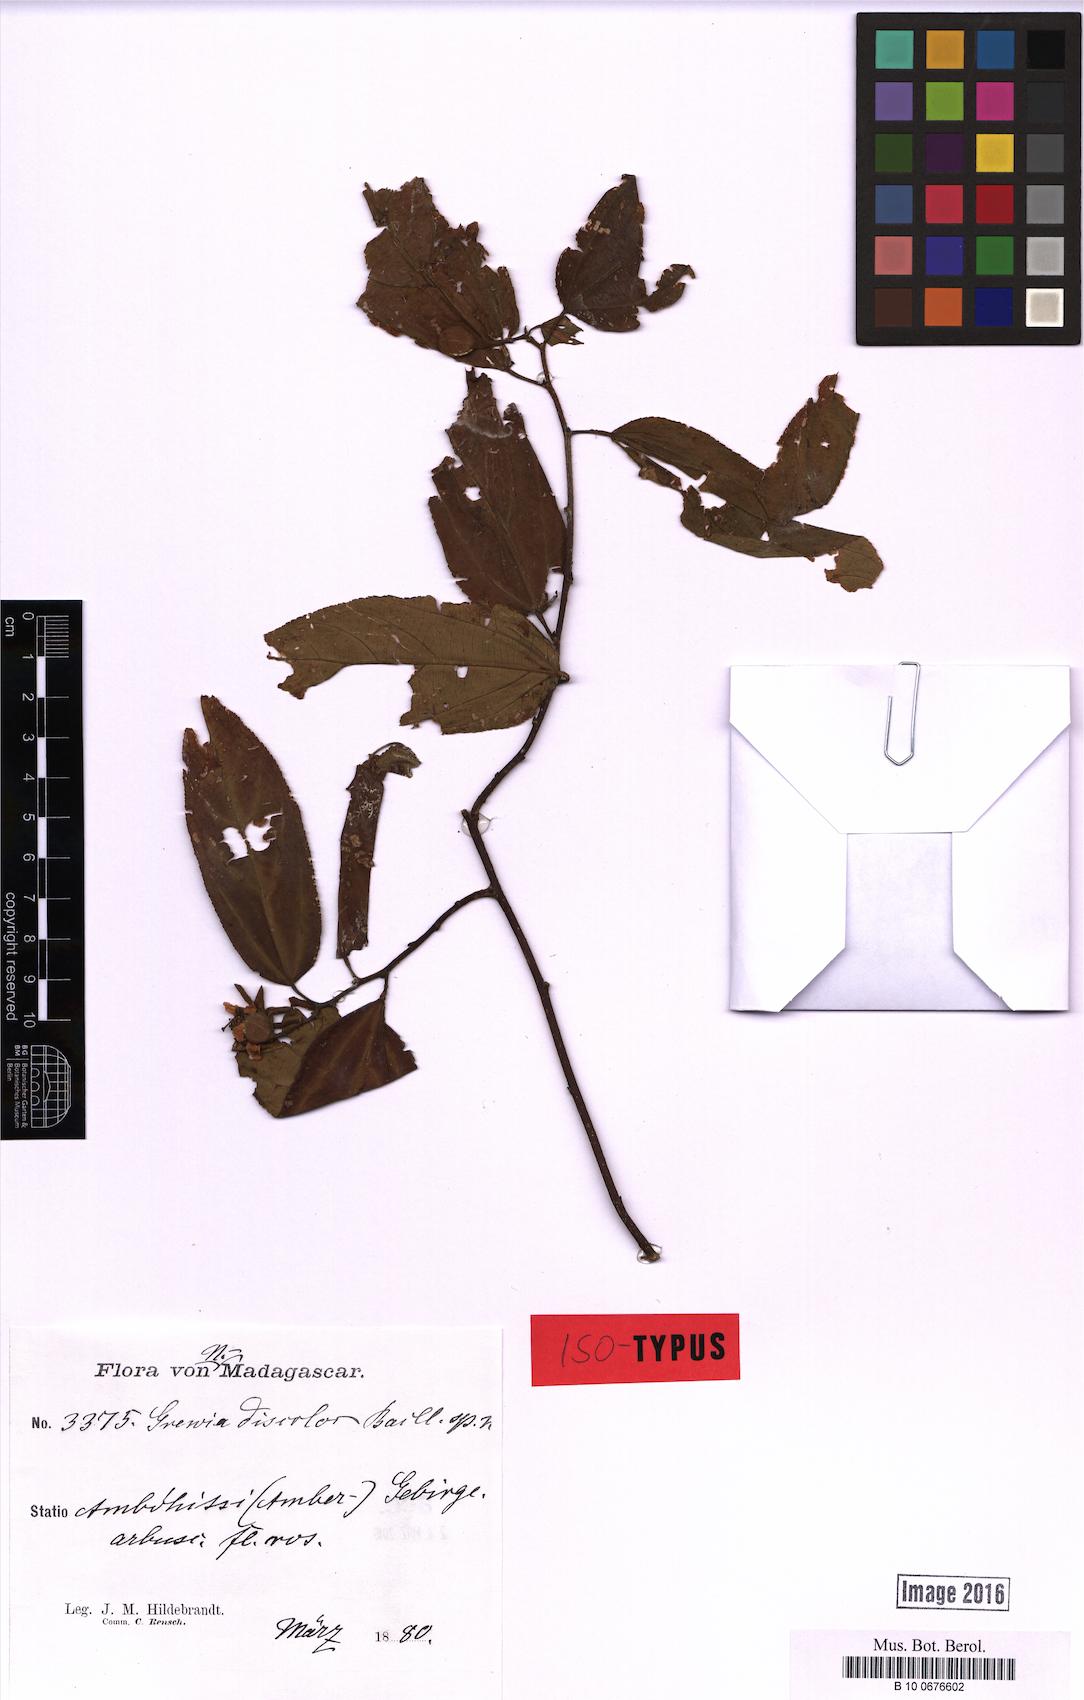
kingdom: Plantae
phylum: Tracheophyta
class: Magnoliopsida
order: Malvales
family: Malvaceae
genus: Grewia
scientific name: Grewia madagascariensis
